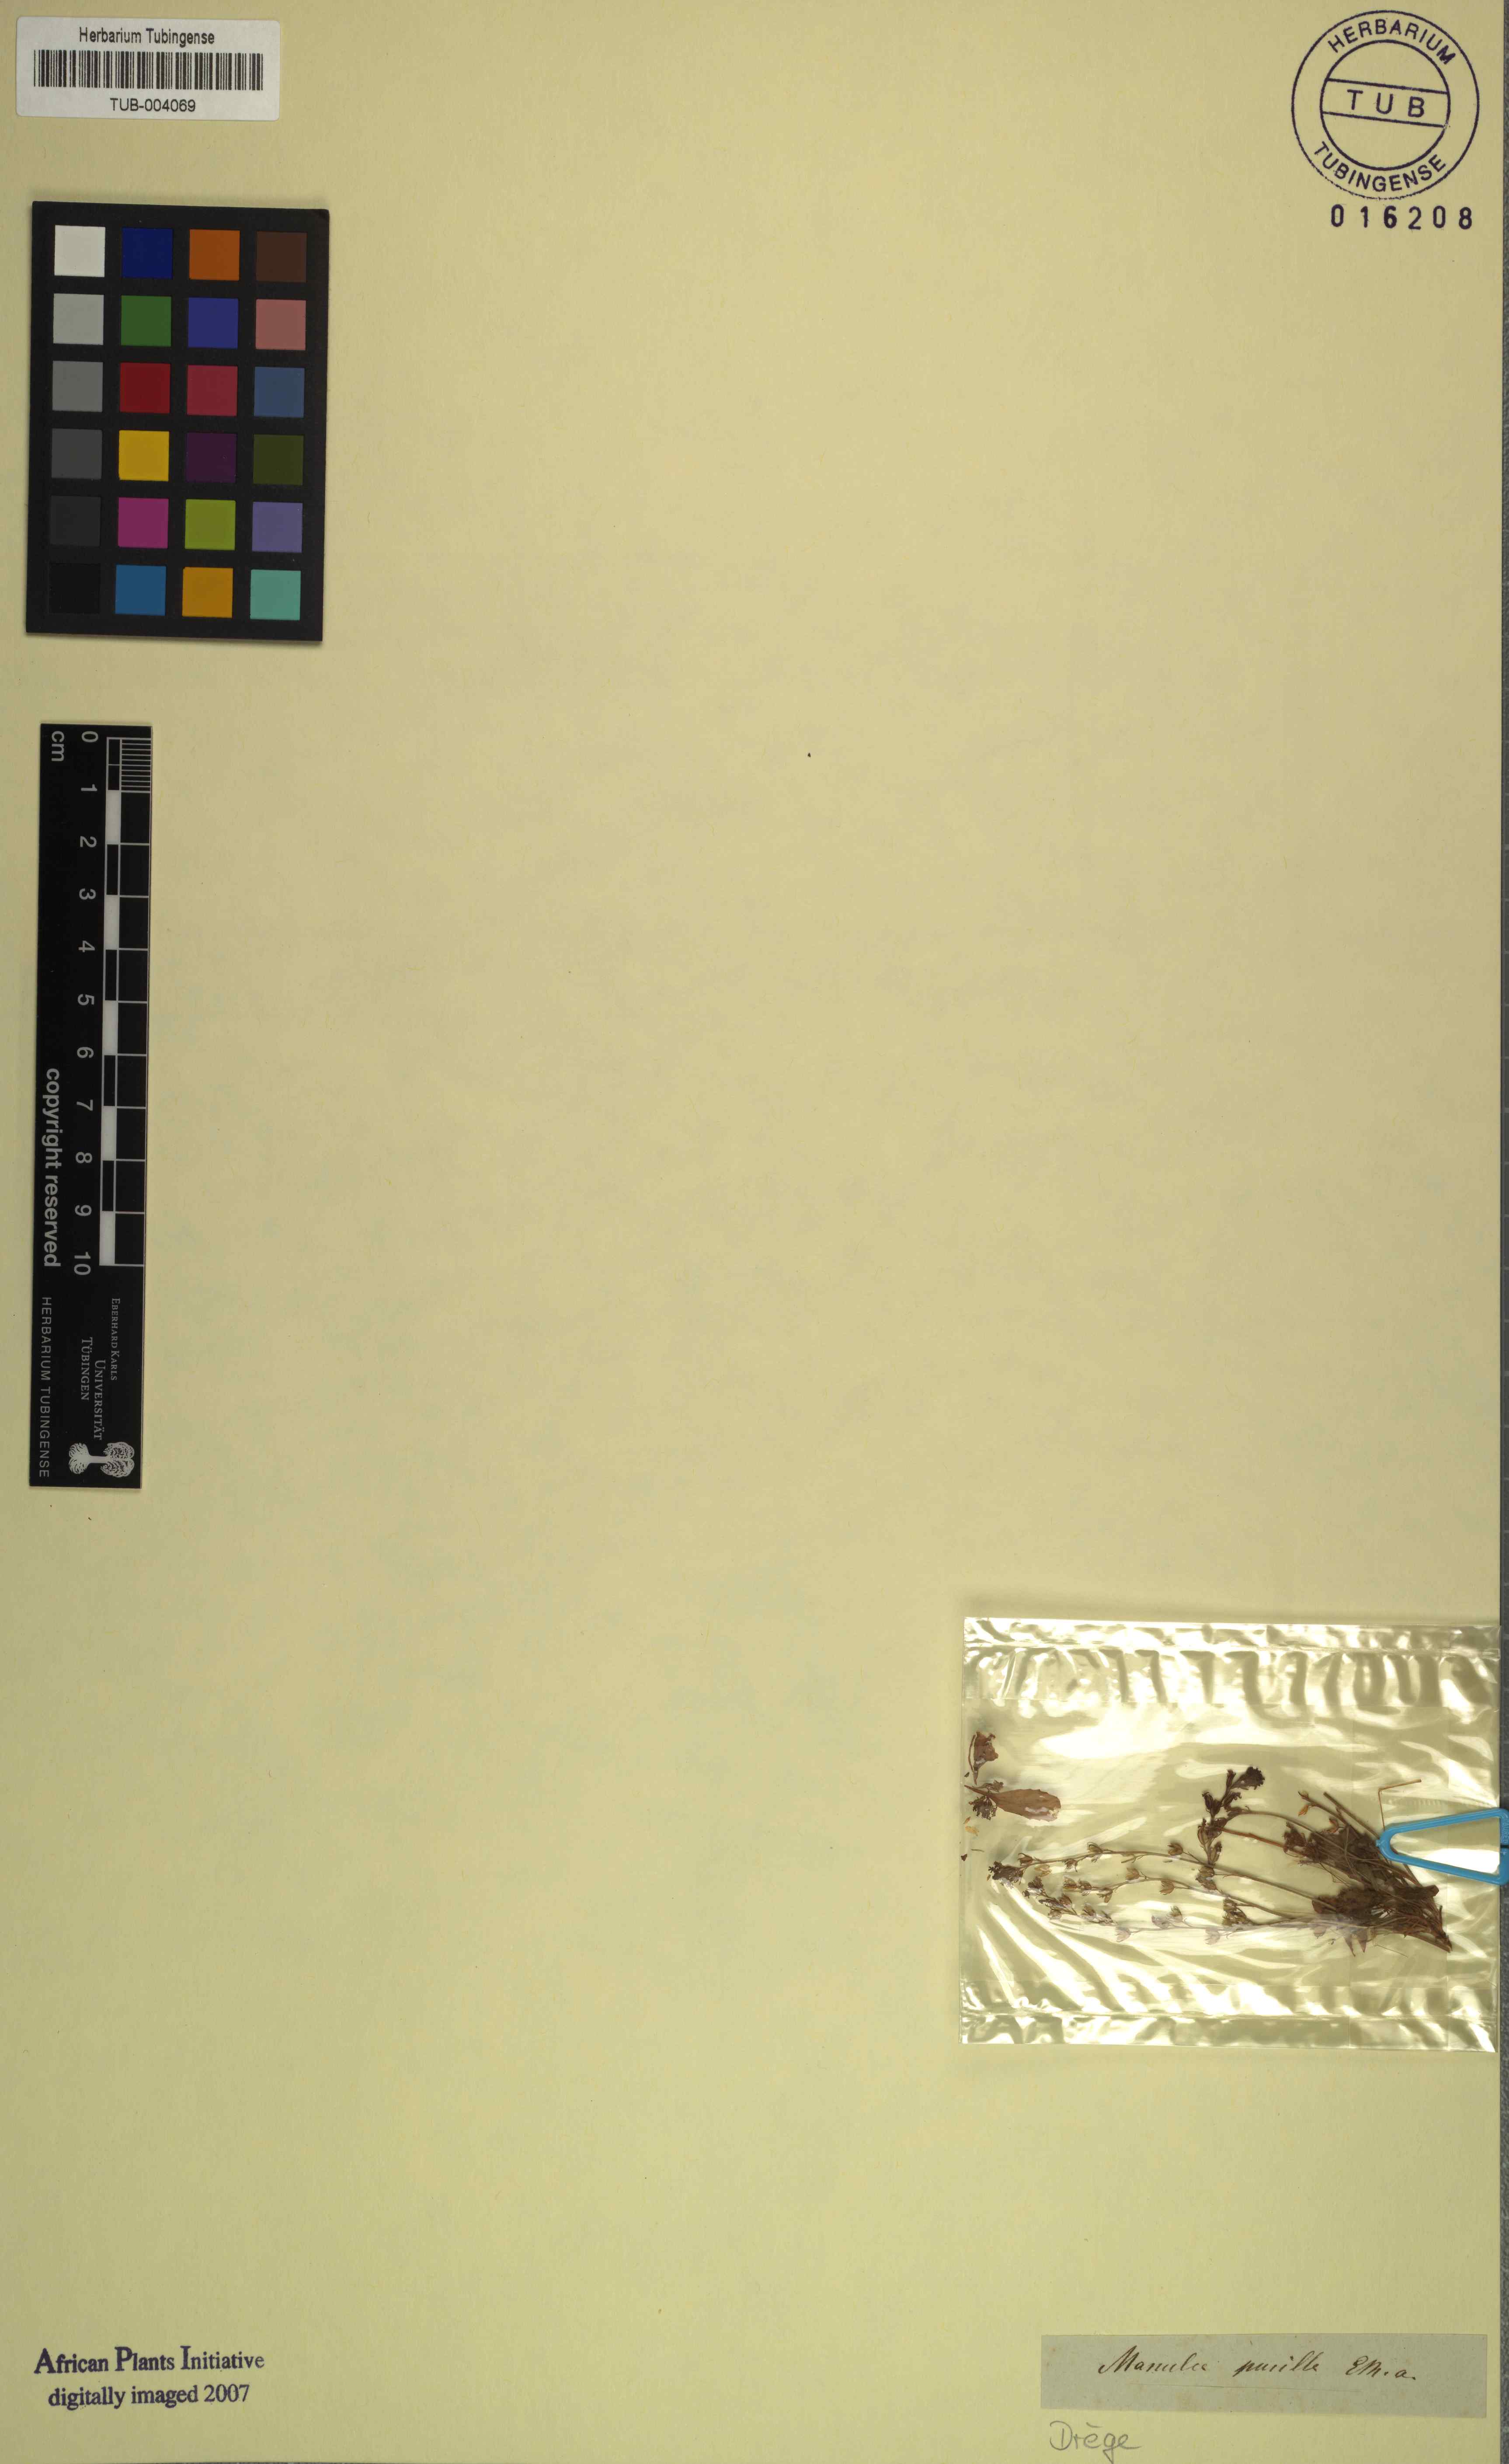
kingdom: Plantae
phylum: Tracheophyta
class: Magnoliopsida
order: Lamiales
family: Scrophulariaceae
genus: Manulea
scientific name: Manulea pusilla
